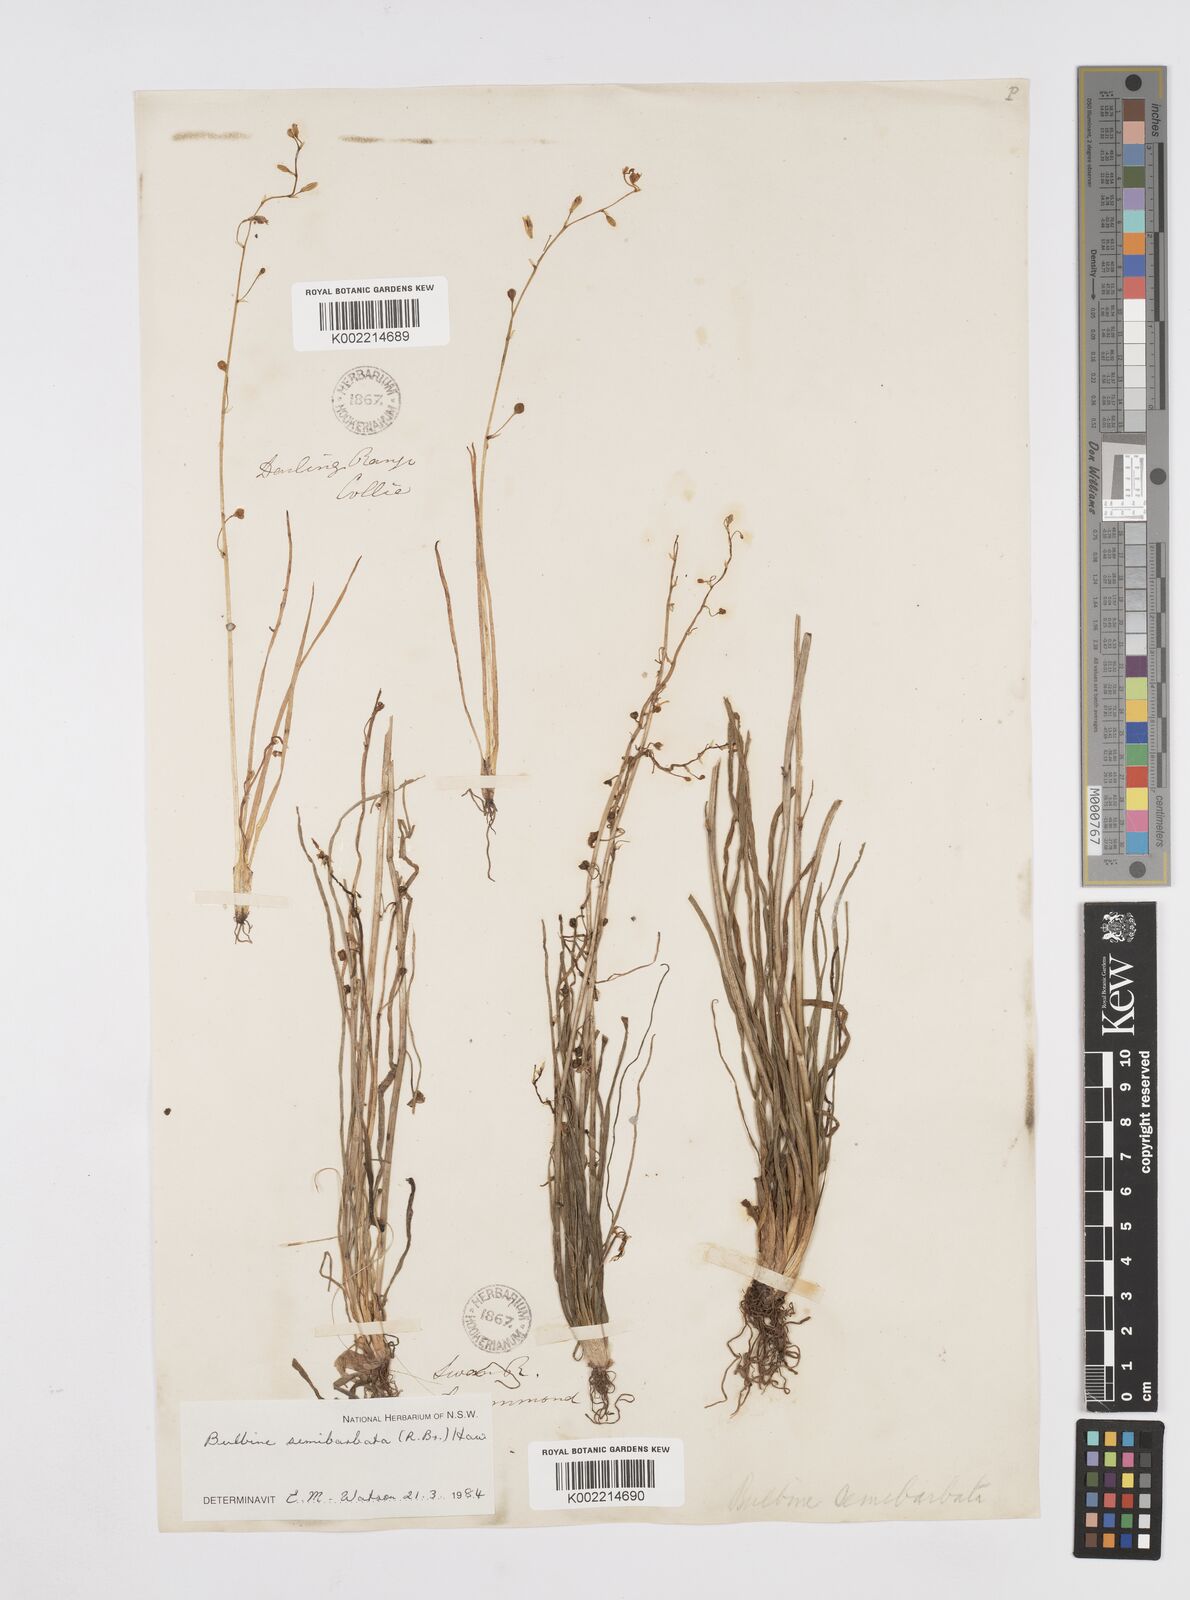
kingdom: Plantae
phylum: Tracheophyta
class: Liliopsida
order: Asparagales
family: Asphodelaceae
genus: Bulbine
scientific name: Bulbine semibarbata
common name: Leek lily
